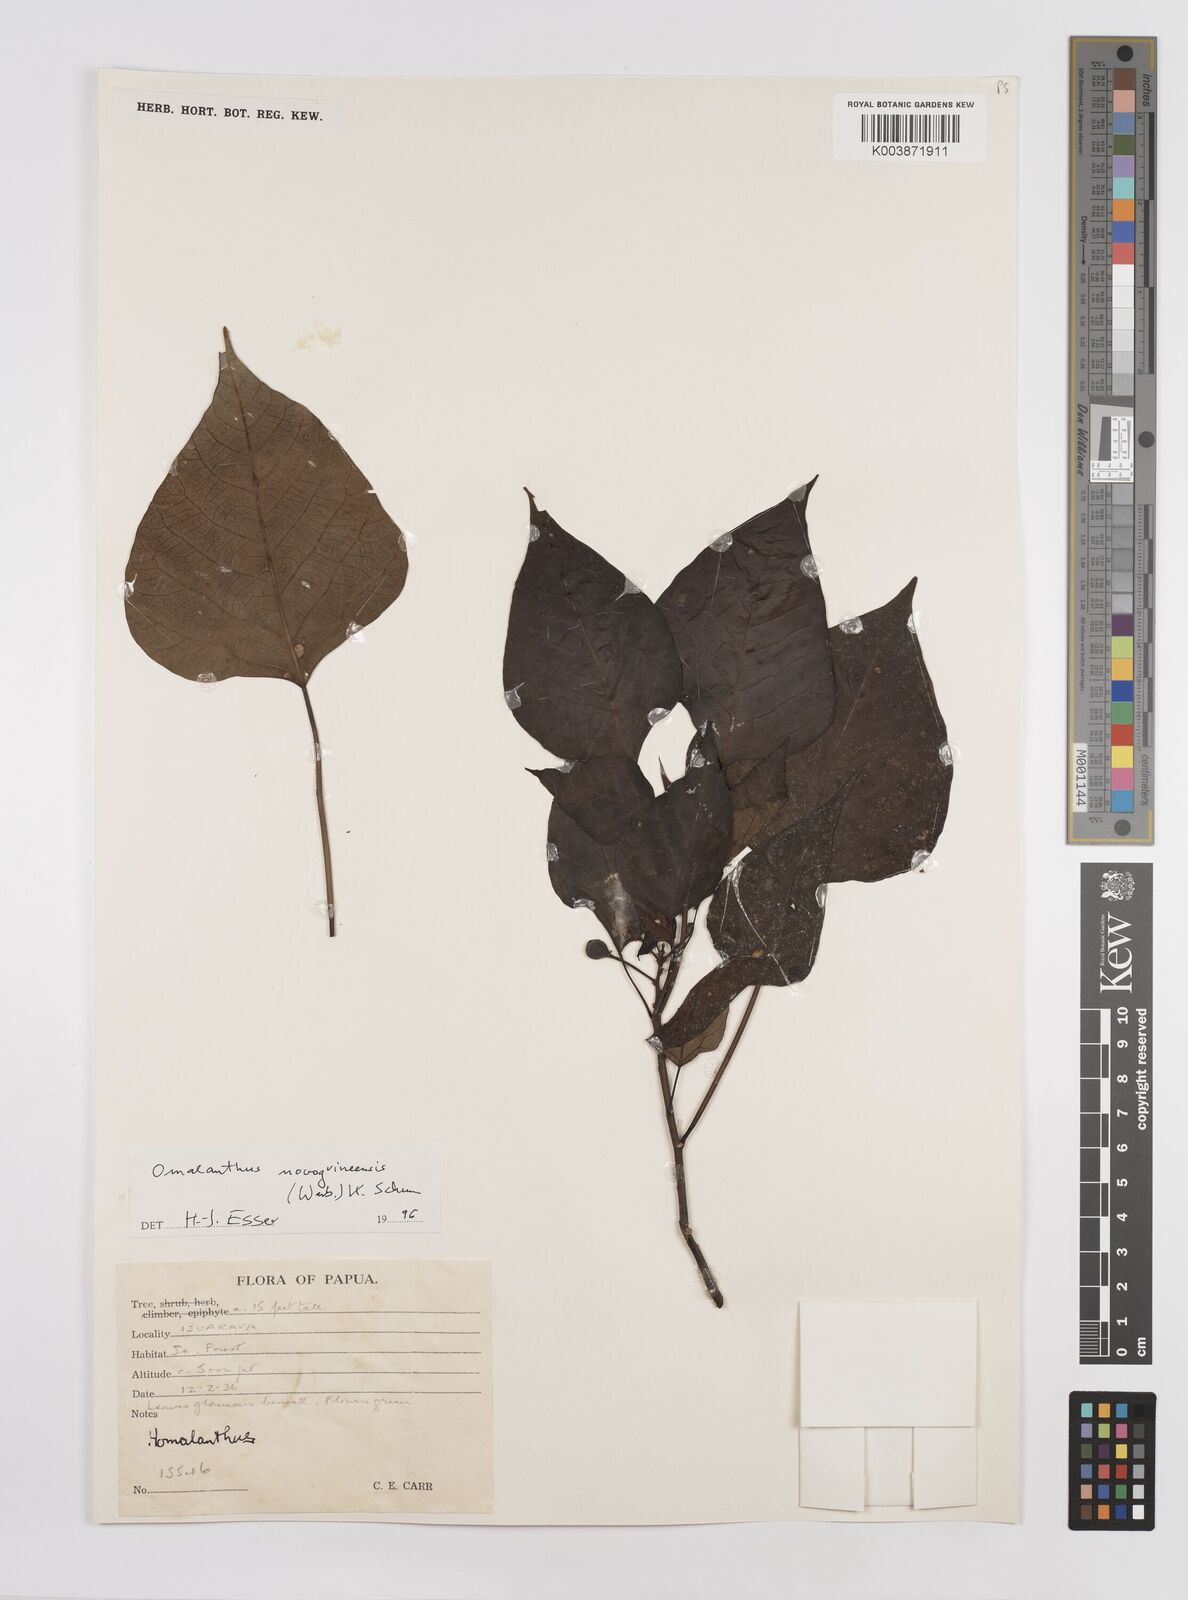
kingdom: Plantae
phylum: Tracheophyta
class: Magnoliopsida
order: Malpighiales
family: Euphorbiaceae
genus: Homalanthus
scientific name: Homalanthus novoguineensis
